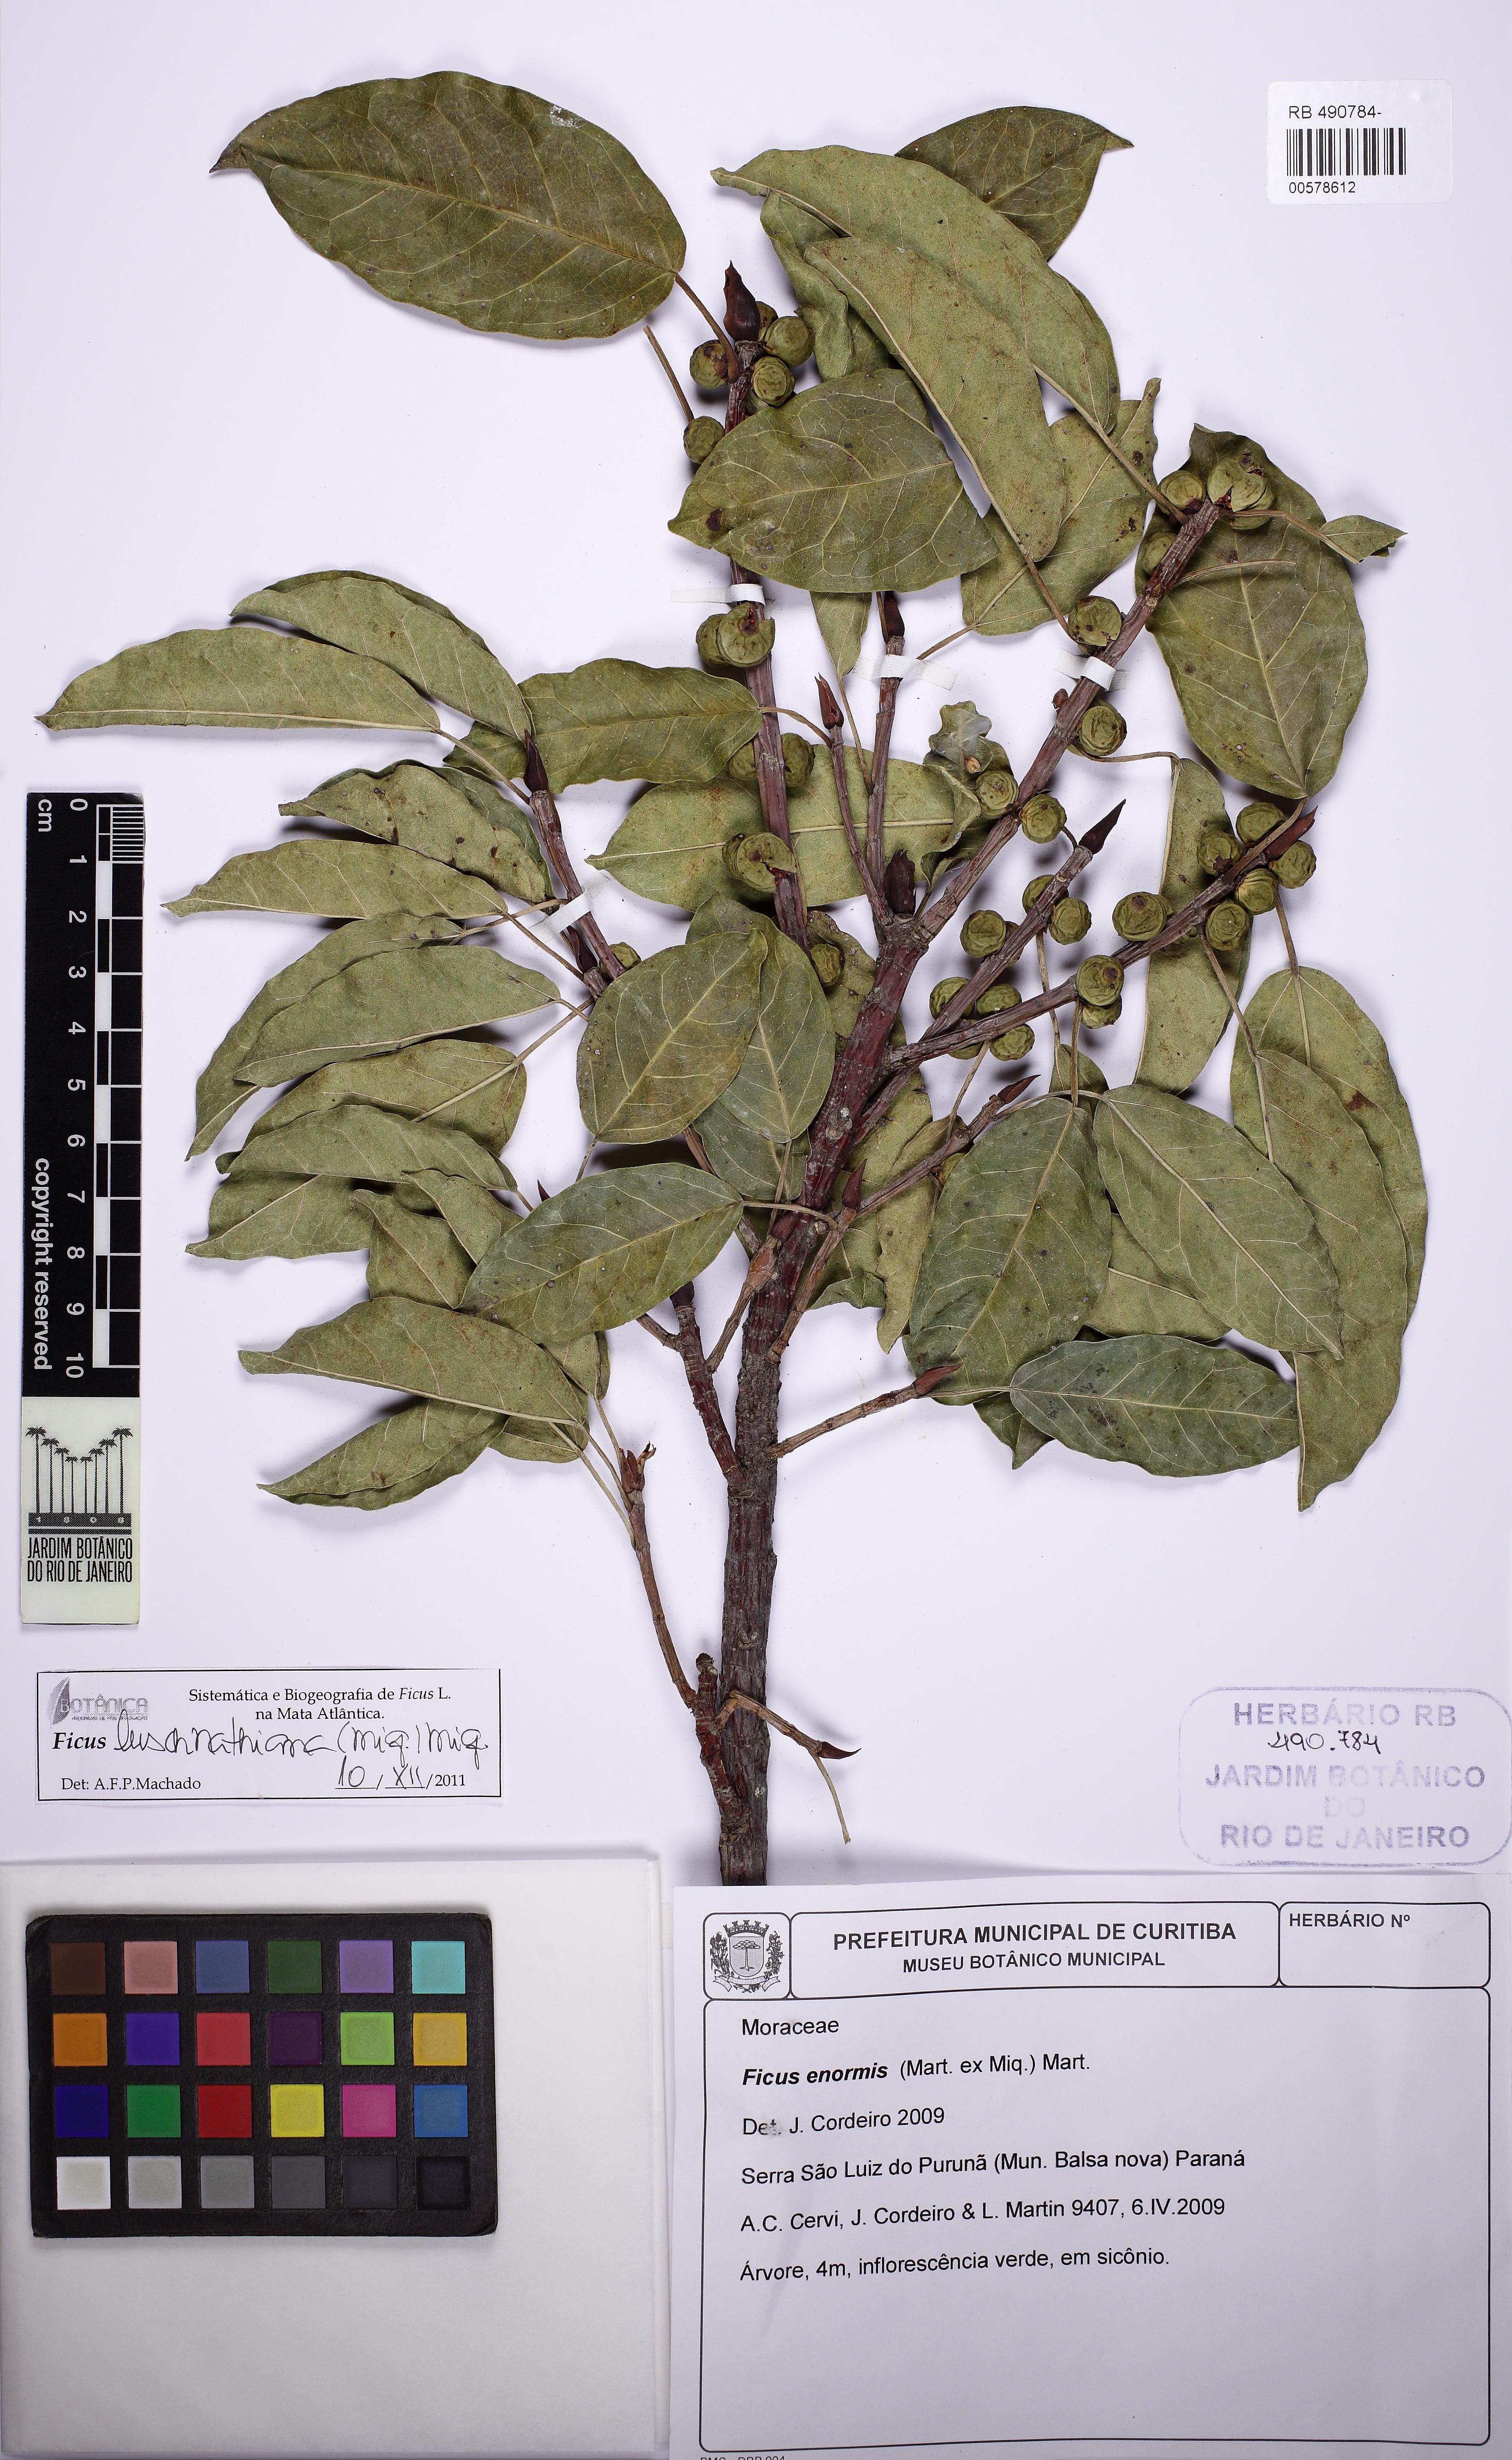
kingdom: Plantae
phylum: Tracheophyta
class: Magnoliopsida
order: Rosales
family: Moraceae
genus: Ficus
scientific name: Ficus luschnathiana
